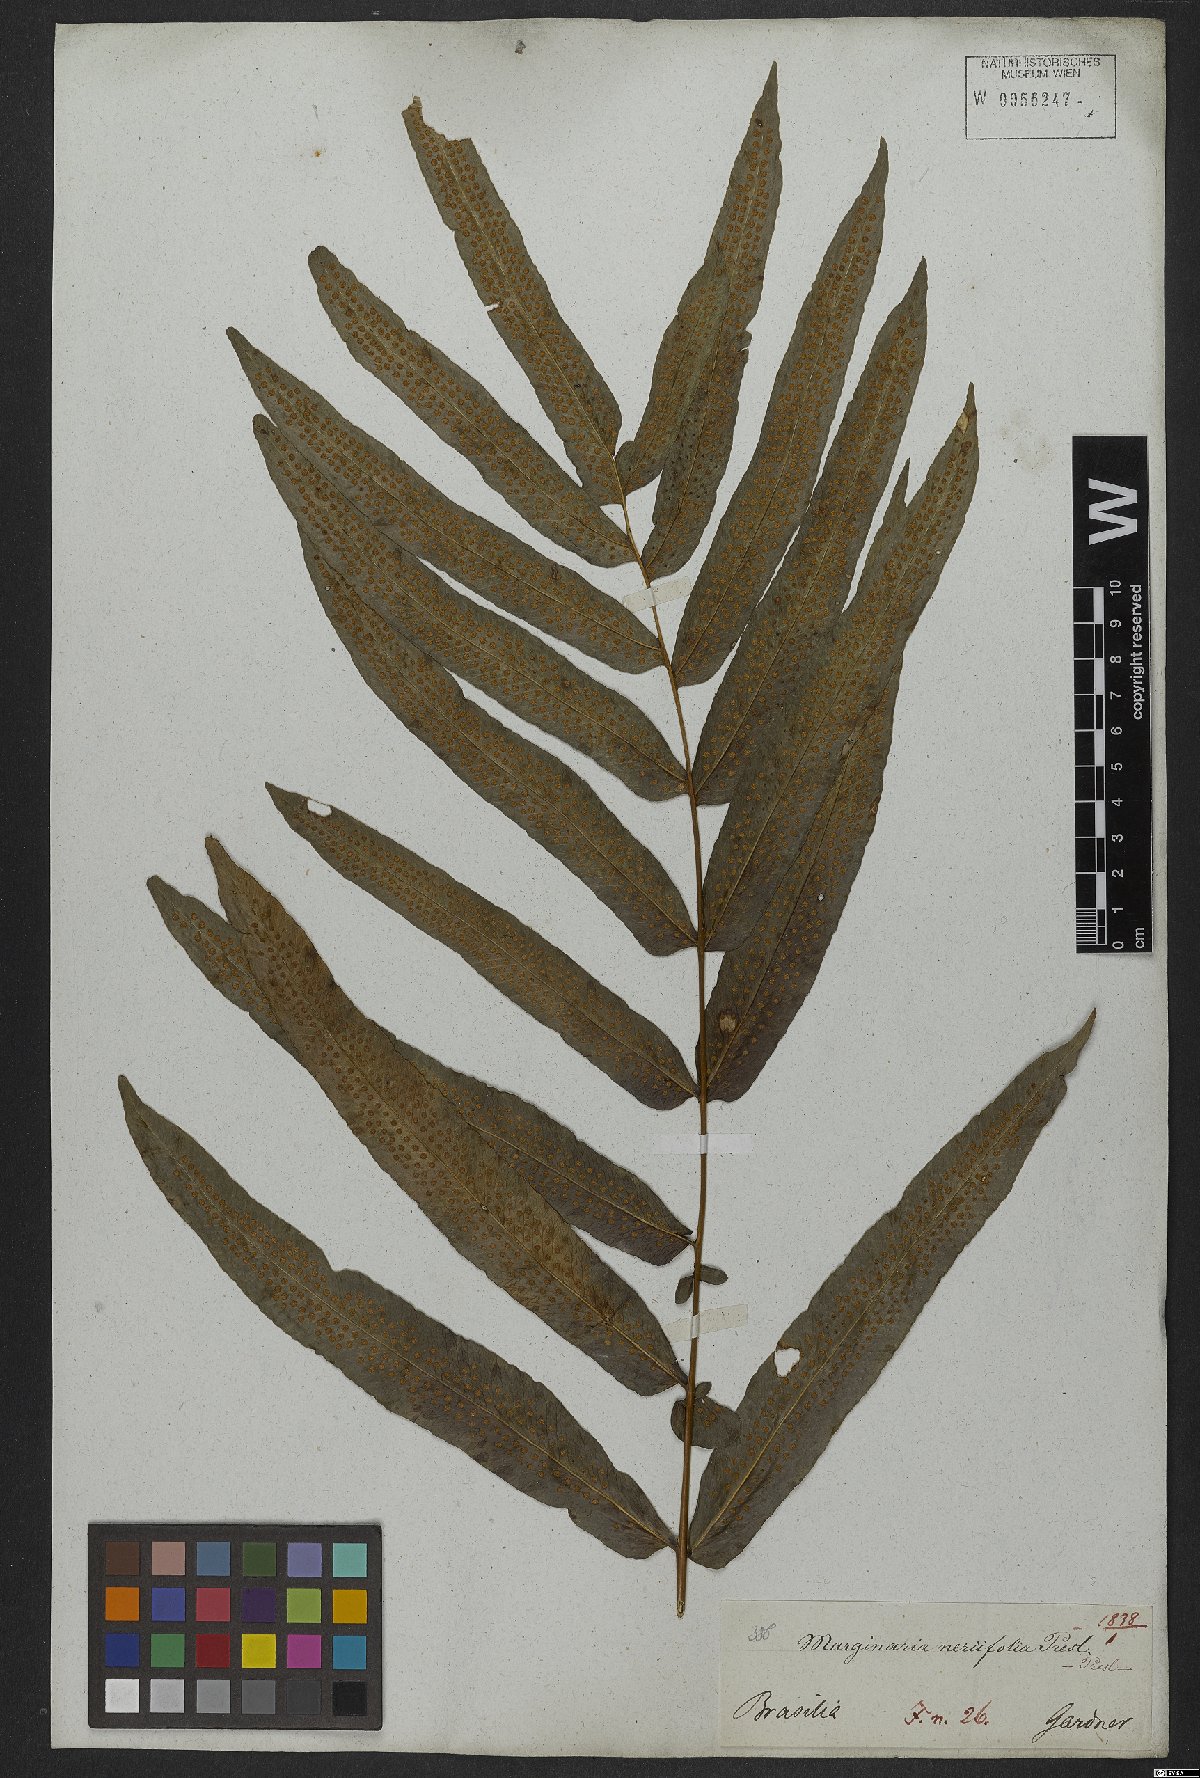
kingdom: Plantae
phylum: Tracheophyta
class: Polypodiopsida
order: Polypodiales
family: Polypodiaceae
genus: Serpocaulon
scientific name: Serpocaulon triseriale
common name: Angle-vein fern
